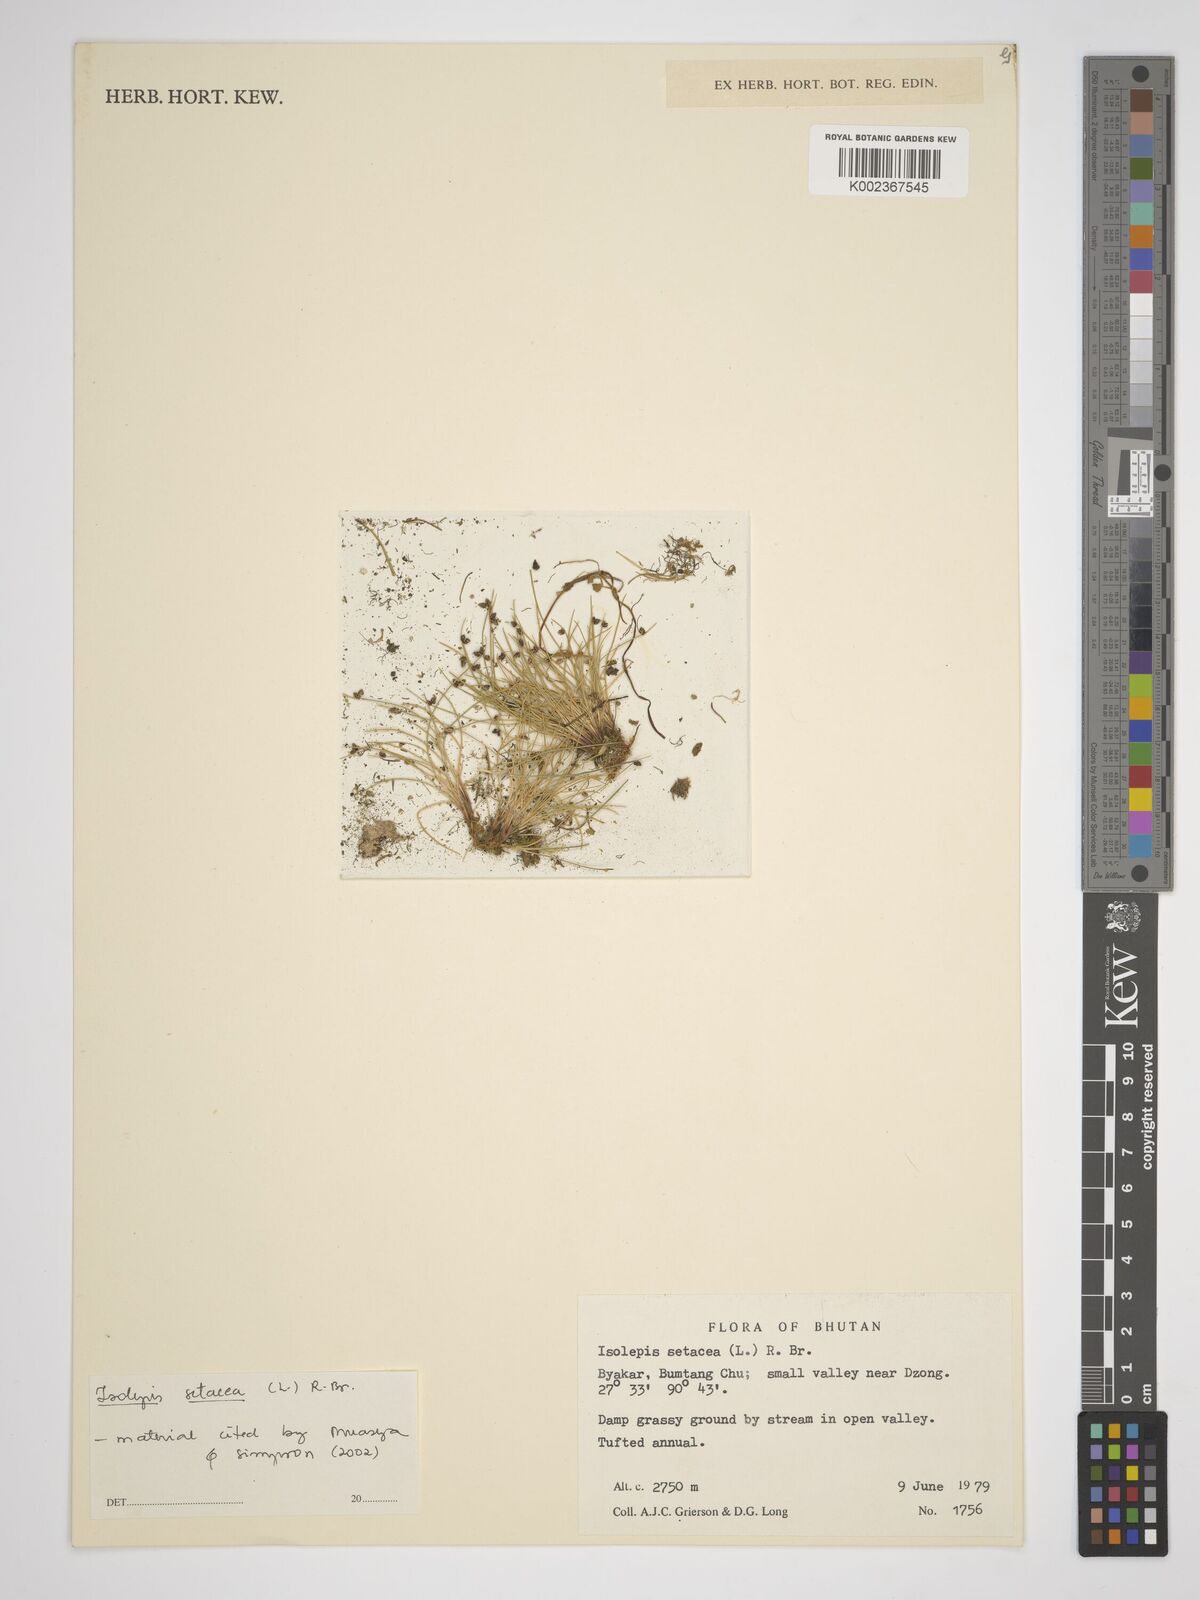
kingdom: Plantae
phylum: Tracheophyta
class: Liliopsida
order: Poales
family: Cyperaceae
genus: Isolepis
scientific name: Isolepis setacea
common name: Bristle club-rush
